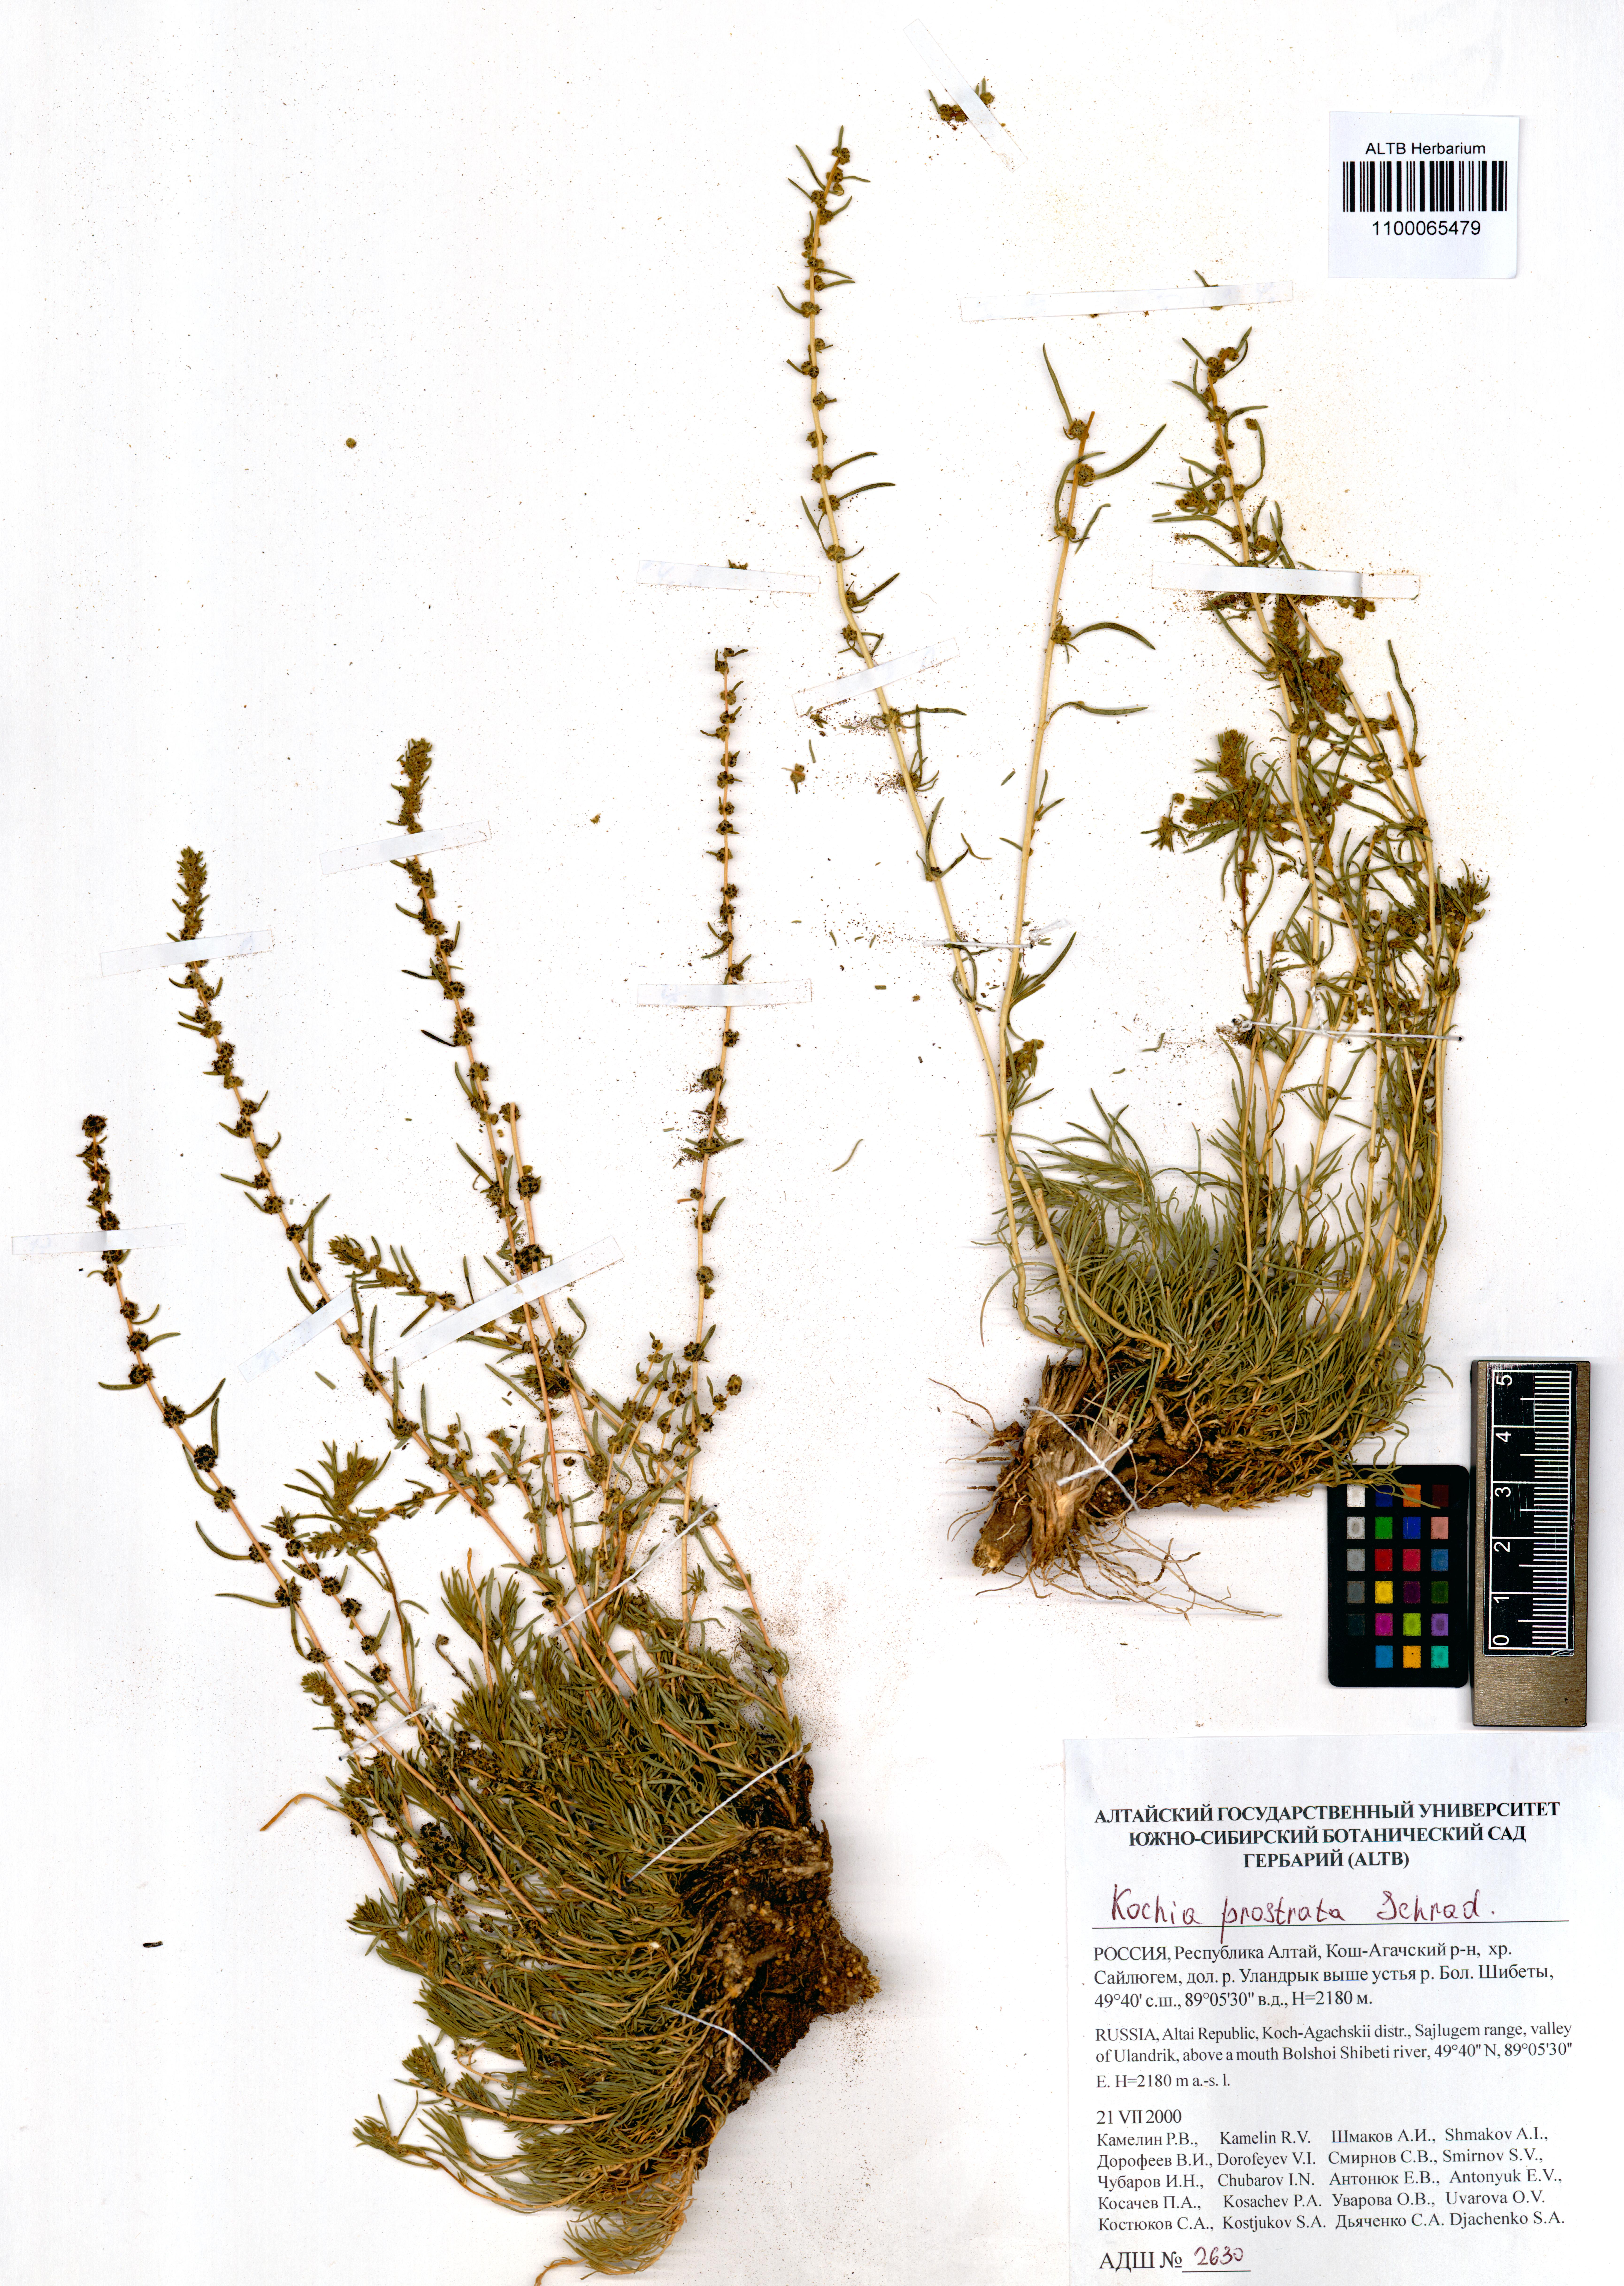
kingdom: Plantae
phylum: Tracheophyta
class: Magnoliopsida
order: Caryophyllales
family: Amaranthaceae
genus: Bassia
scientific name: Bassia prostrata
